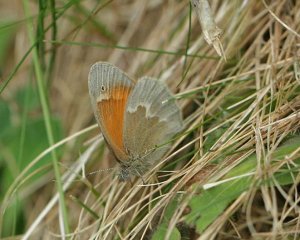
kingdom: Animalia
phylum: Arthropoda
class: Insecta
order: Lepidoptera
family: Nymphalidae
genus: Coenonympha
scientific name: Coenonympha tullia
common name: Large Heath
